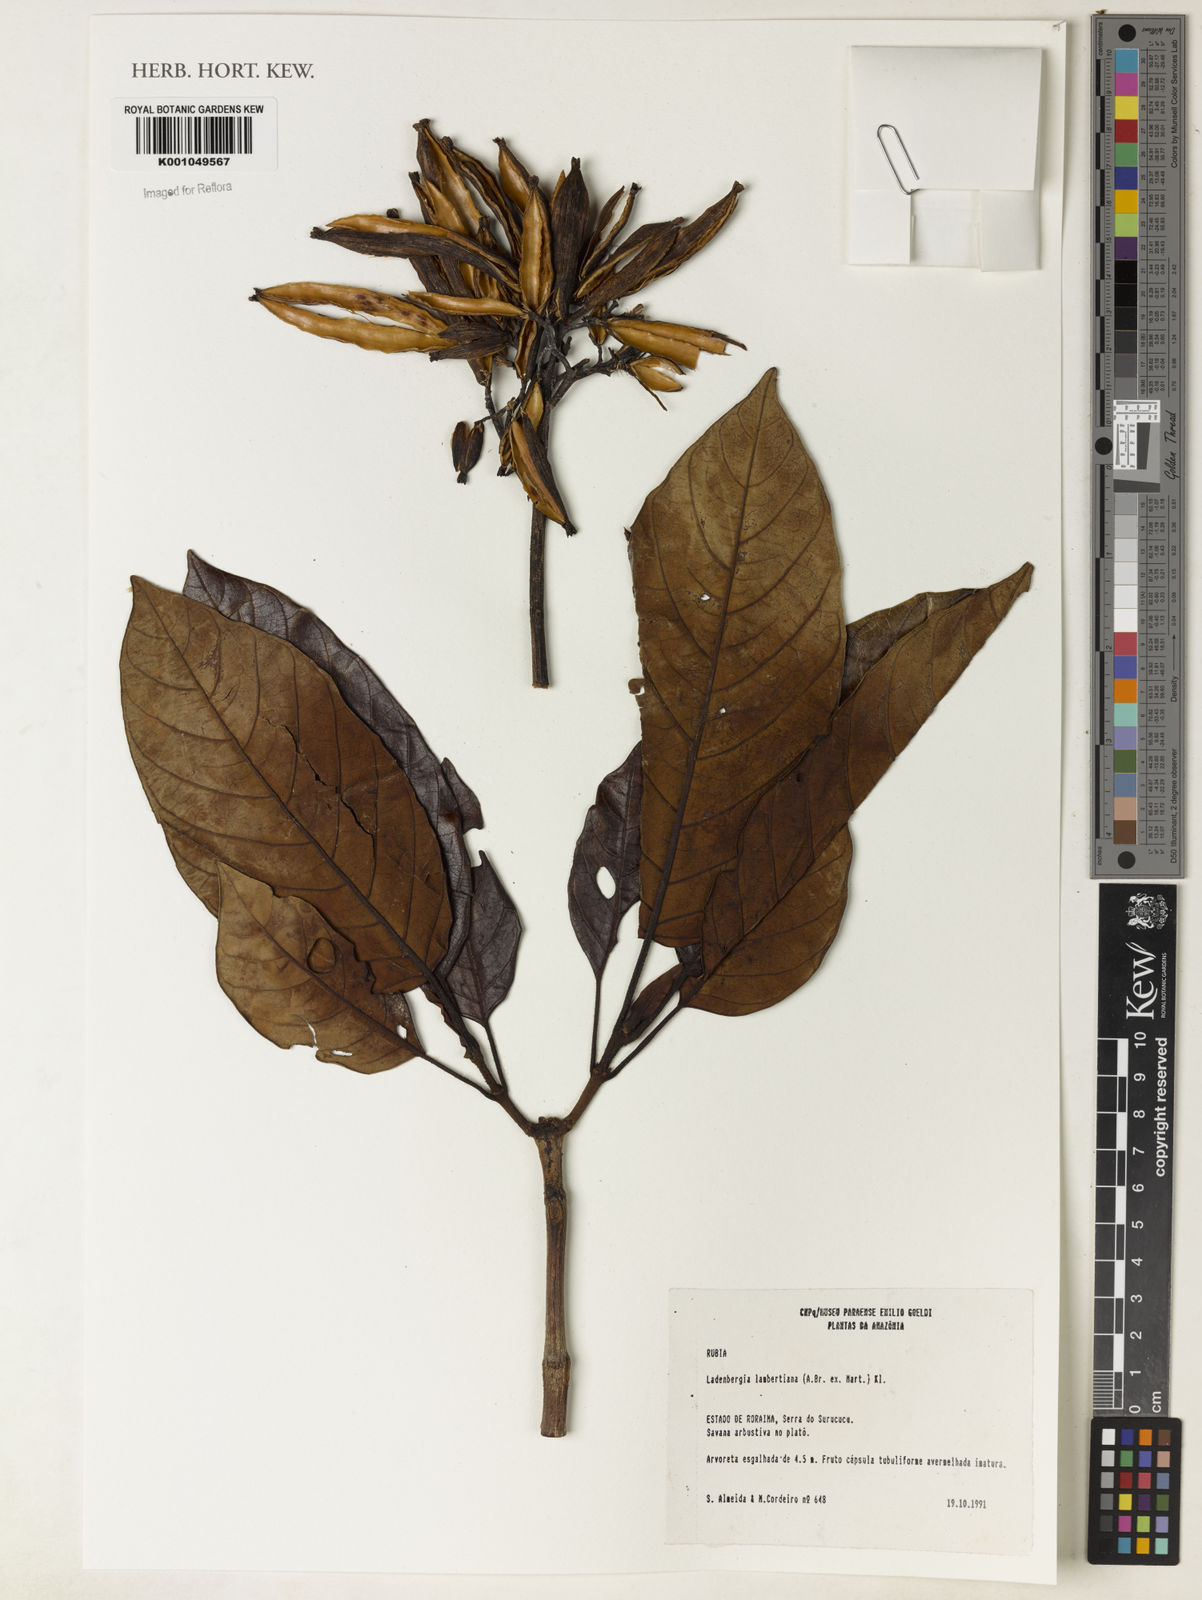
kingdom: Plantae
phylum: Tracheophyta
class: Magnoliopsida
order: Gentianales
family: Rubiaceae
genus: Ladenbergia
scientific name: Ladenbergia lambertiana
